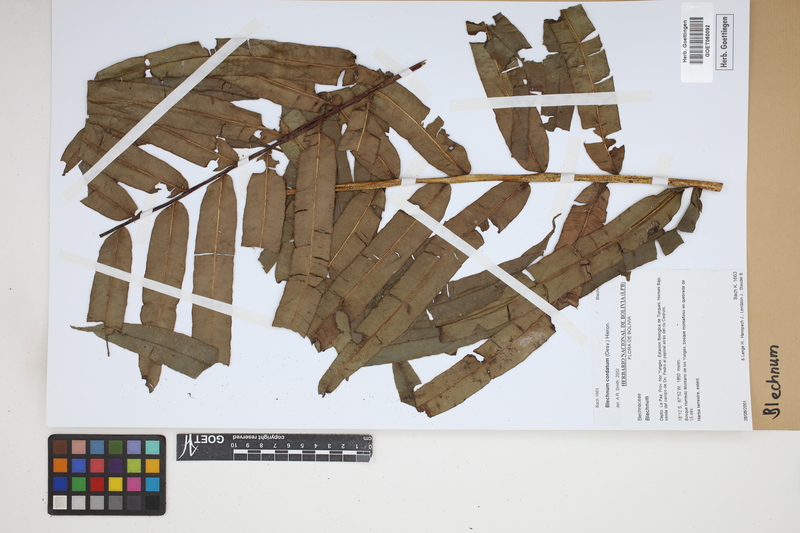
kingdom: Plantae
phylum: Tracheophyta
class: Polypodiopsida
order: Polypodiales
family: Blechnaceae
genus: Blechnum
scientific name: Blechnum
